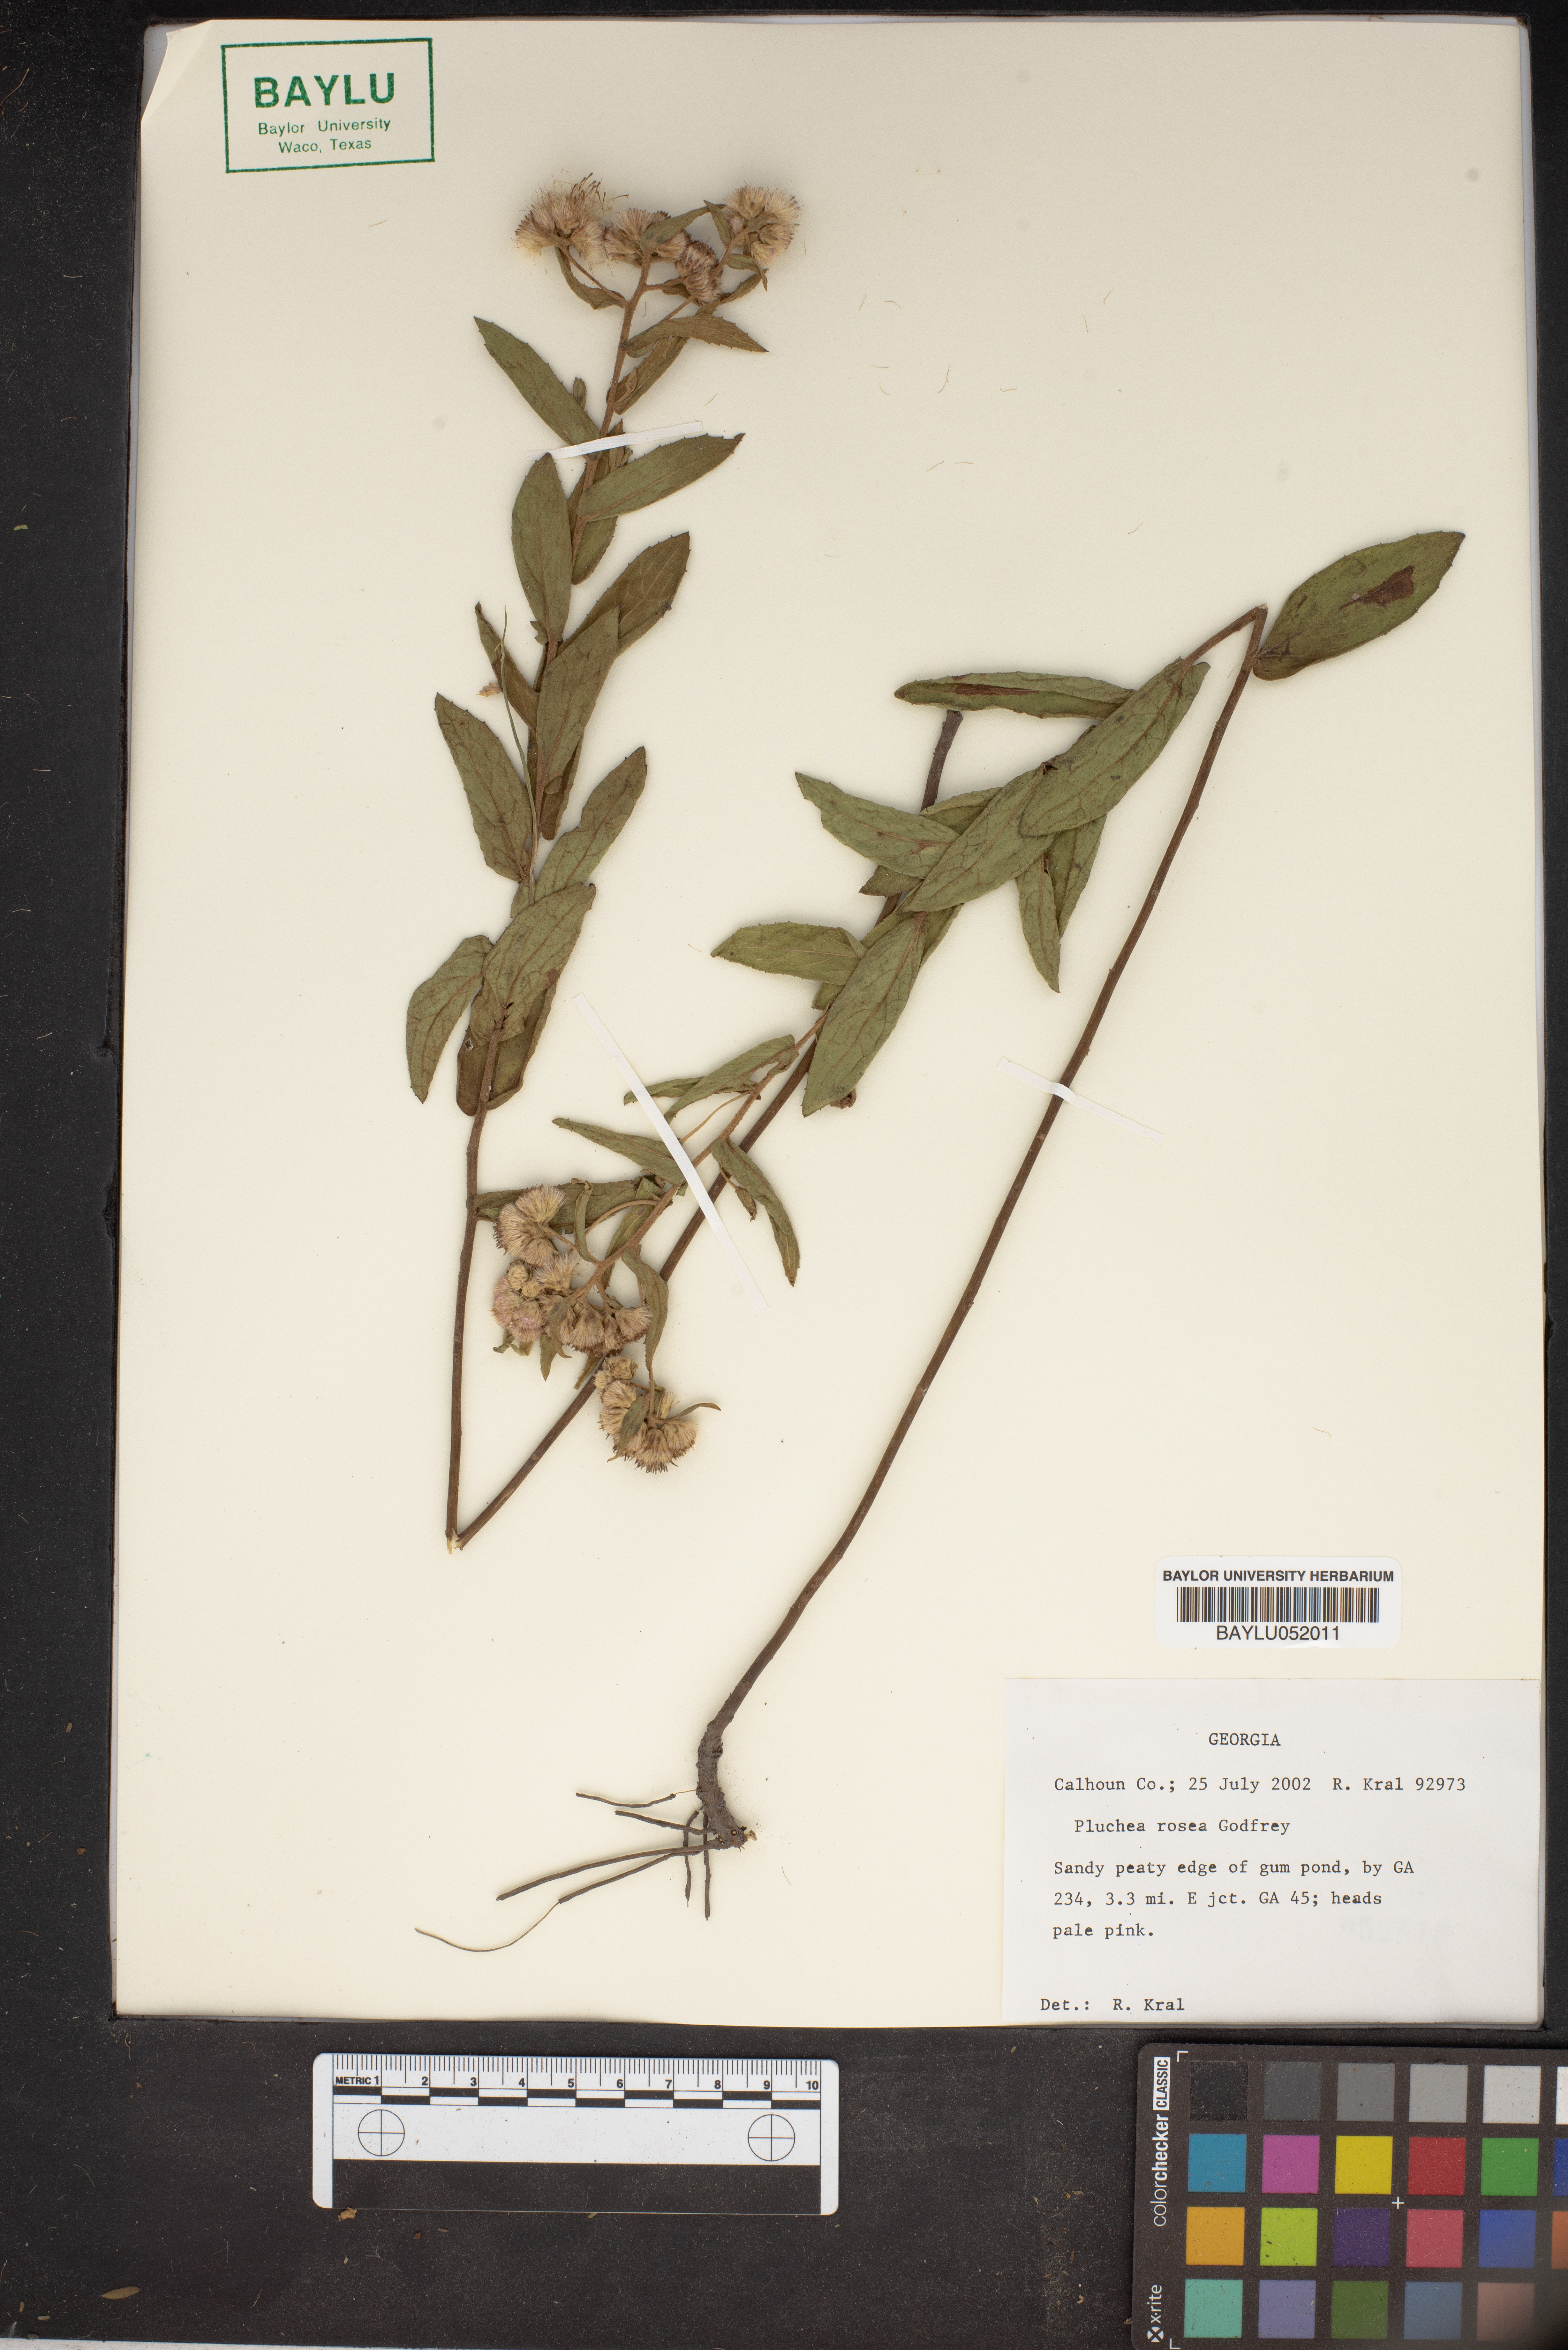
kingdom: Plantae
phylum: Tracheophyta
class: Magnoliopsida
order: Asterales
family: Asteraceae
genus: Pluchea
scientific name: Pluchea baccharis
